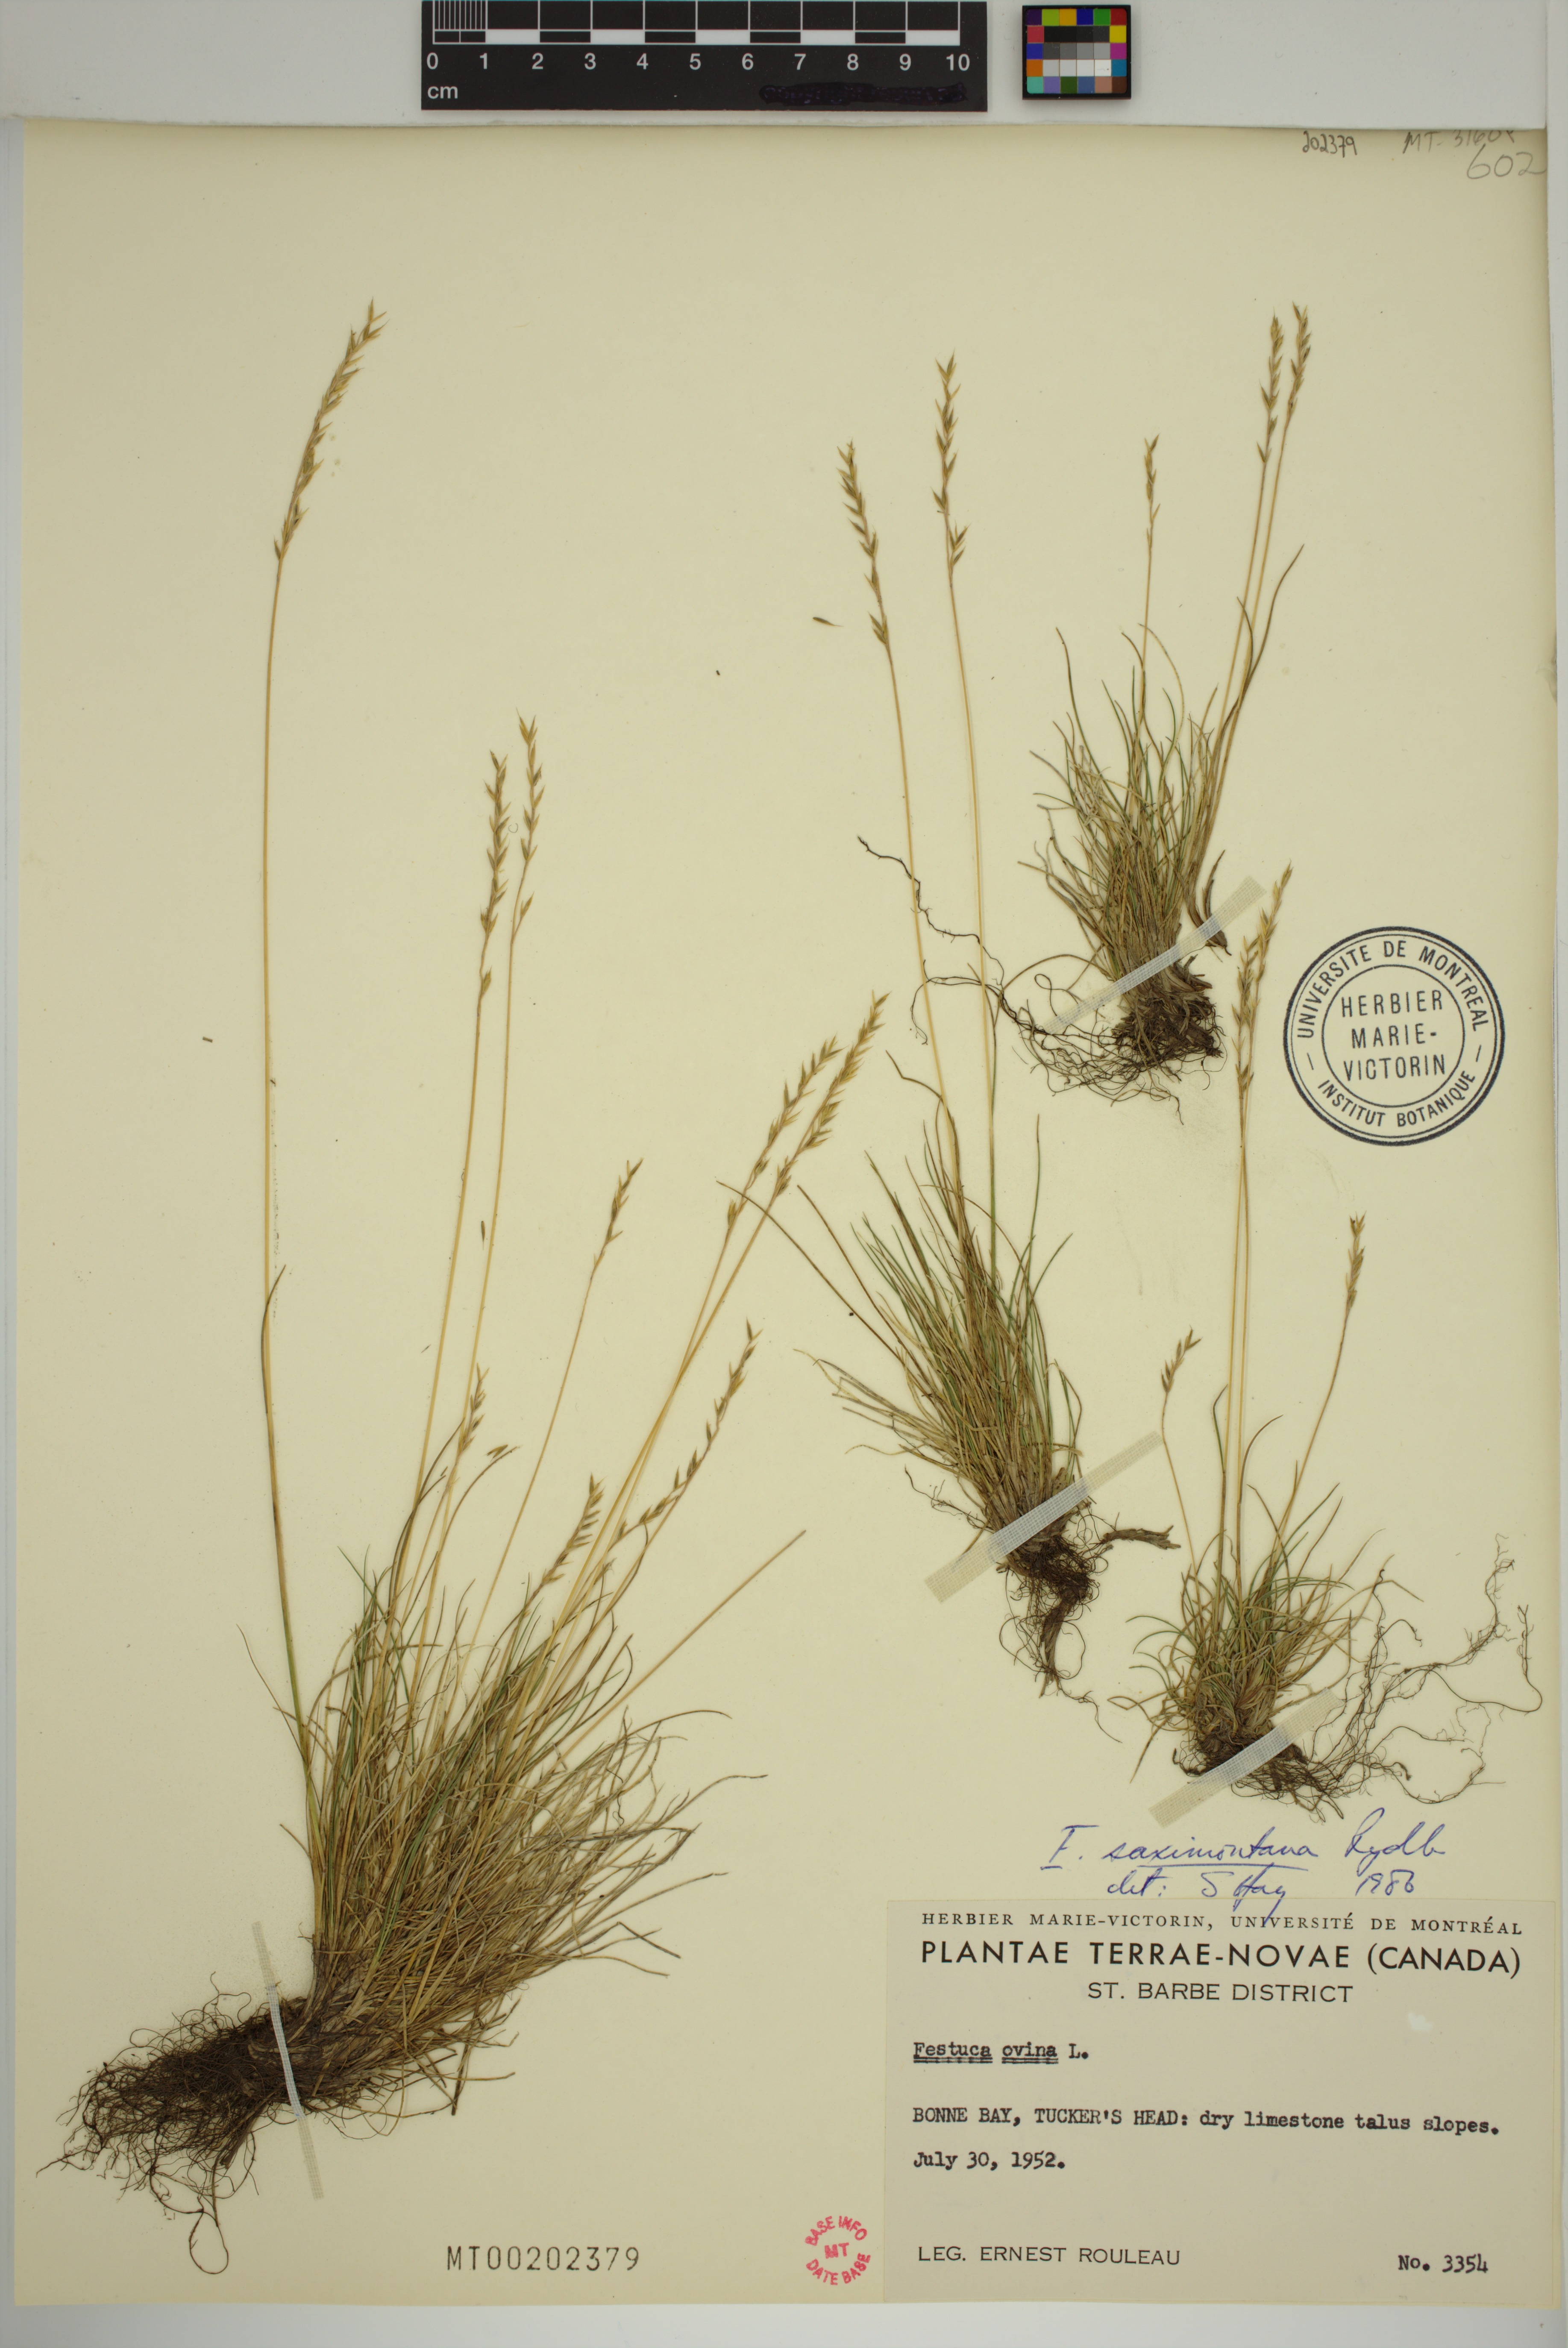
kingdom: Plantae
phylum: Tracheophyta
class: Liliopsida
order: Poales
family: Poaceae
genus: Festuca
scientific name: Festuca saximontana
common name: Mountain fescue
